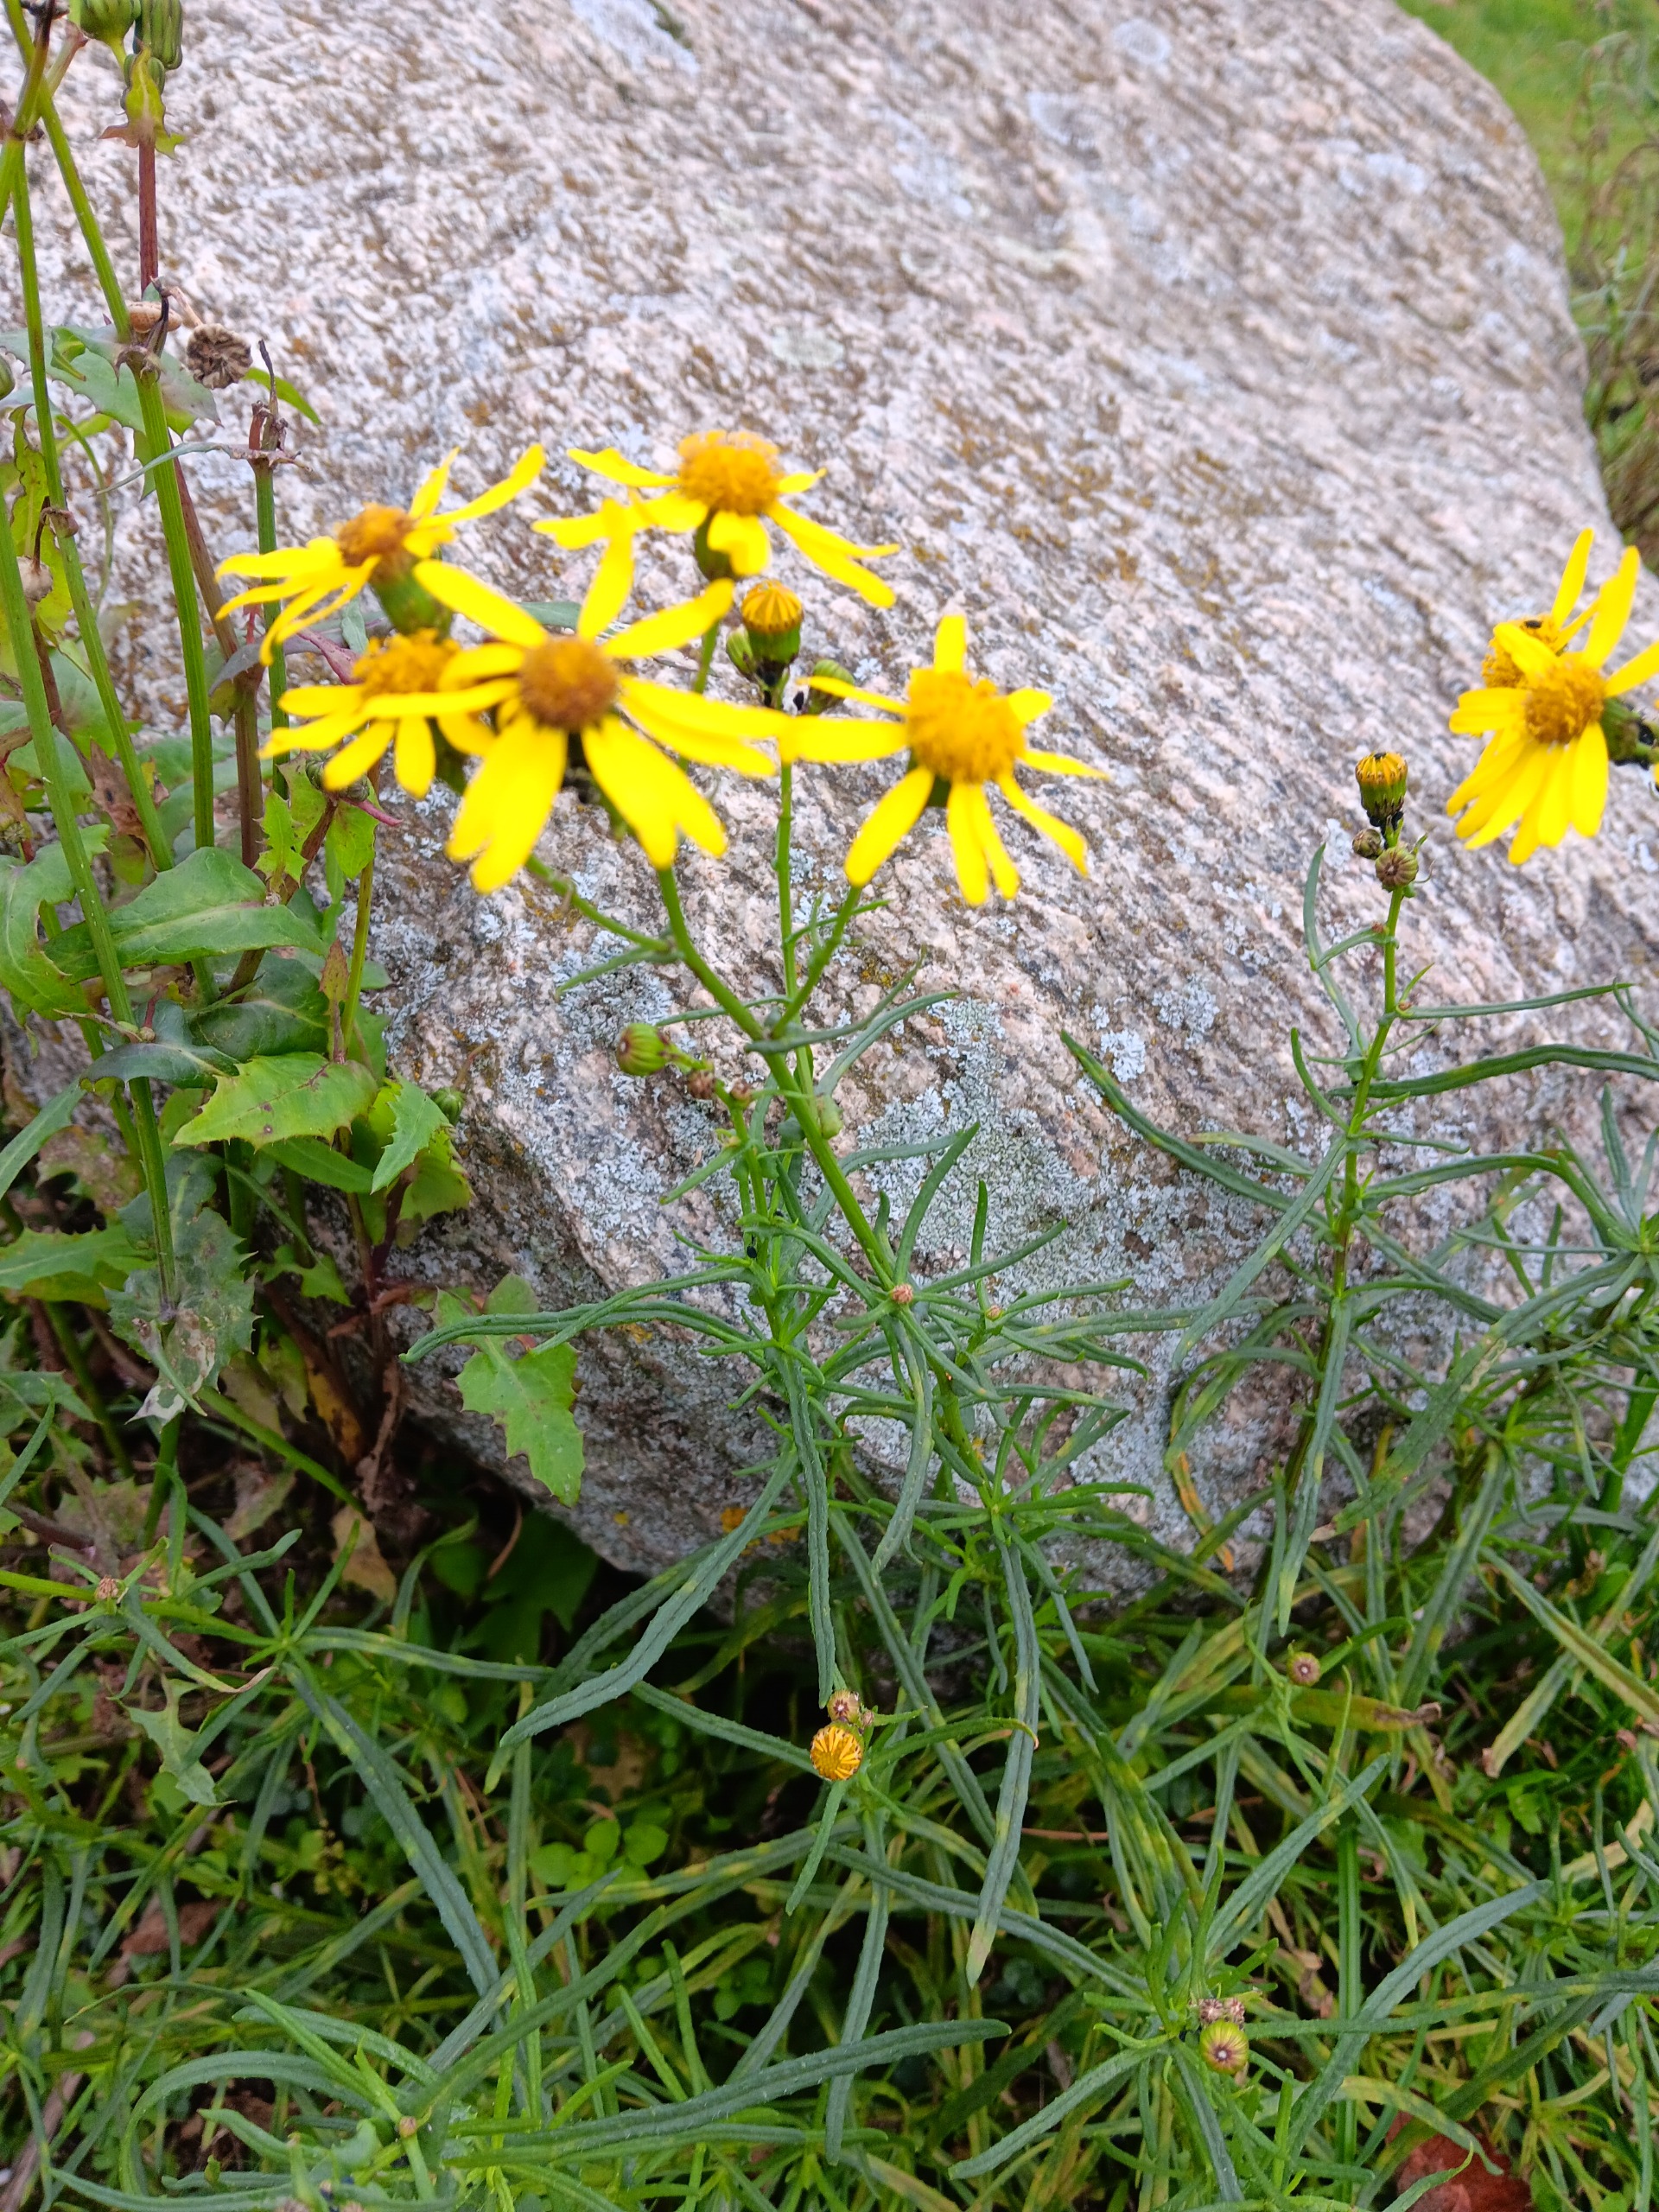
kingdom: Plantae
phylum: Tracheophyta
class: Magnoliopsida
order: Asterales
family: Asteraceae
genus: Senecio
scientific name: Senecio inaequidens
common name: Smalbladet brandbæger
